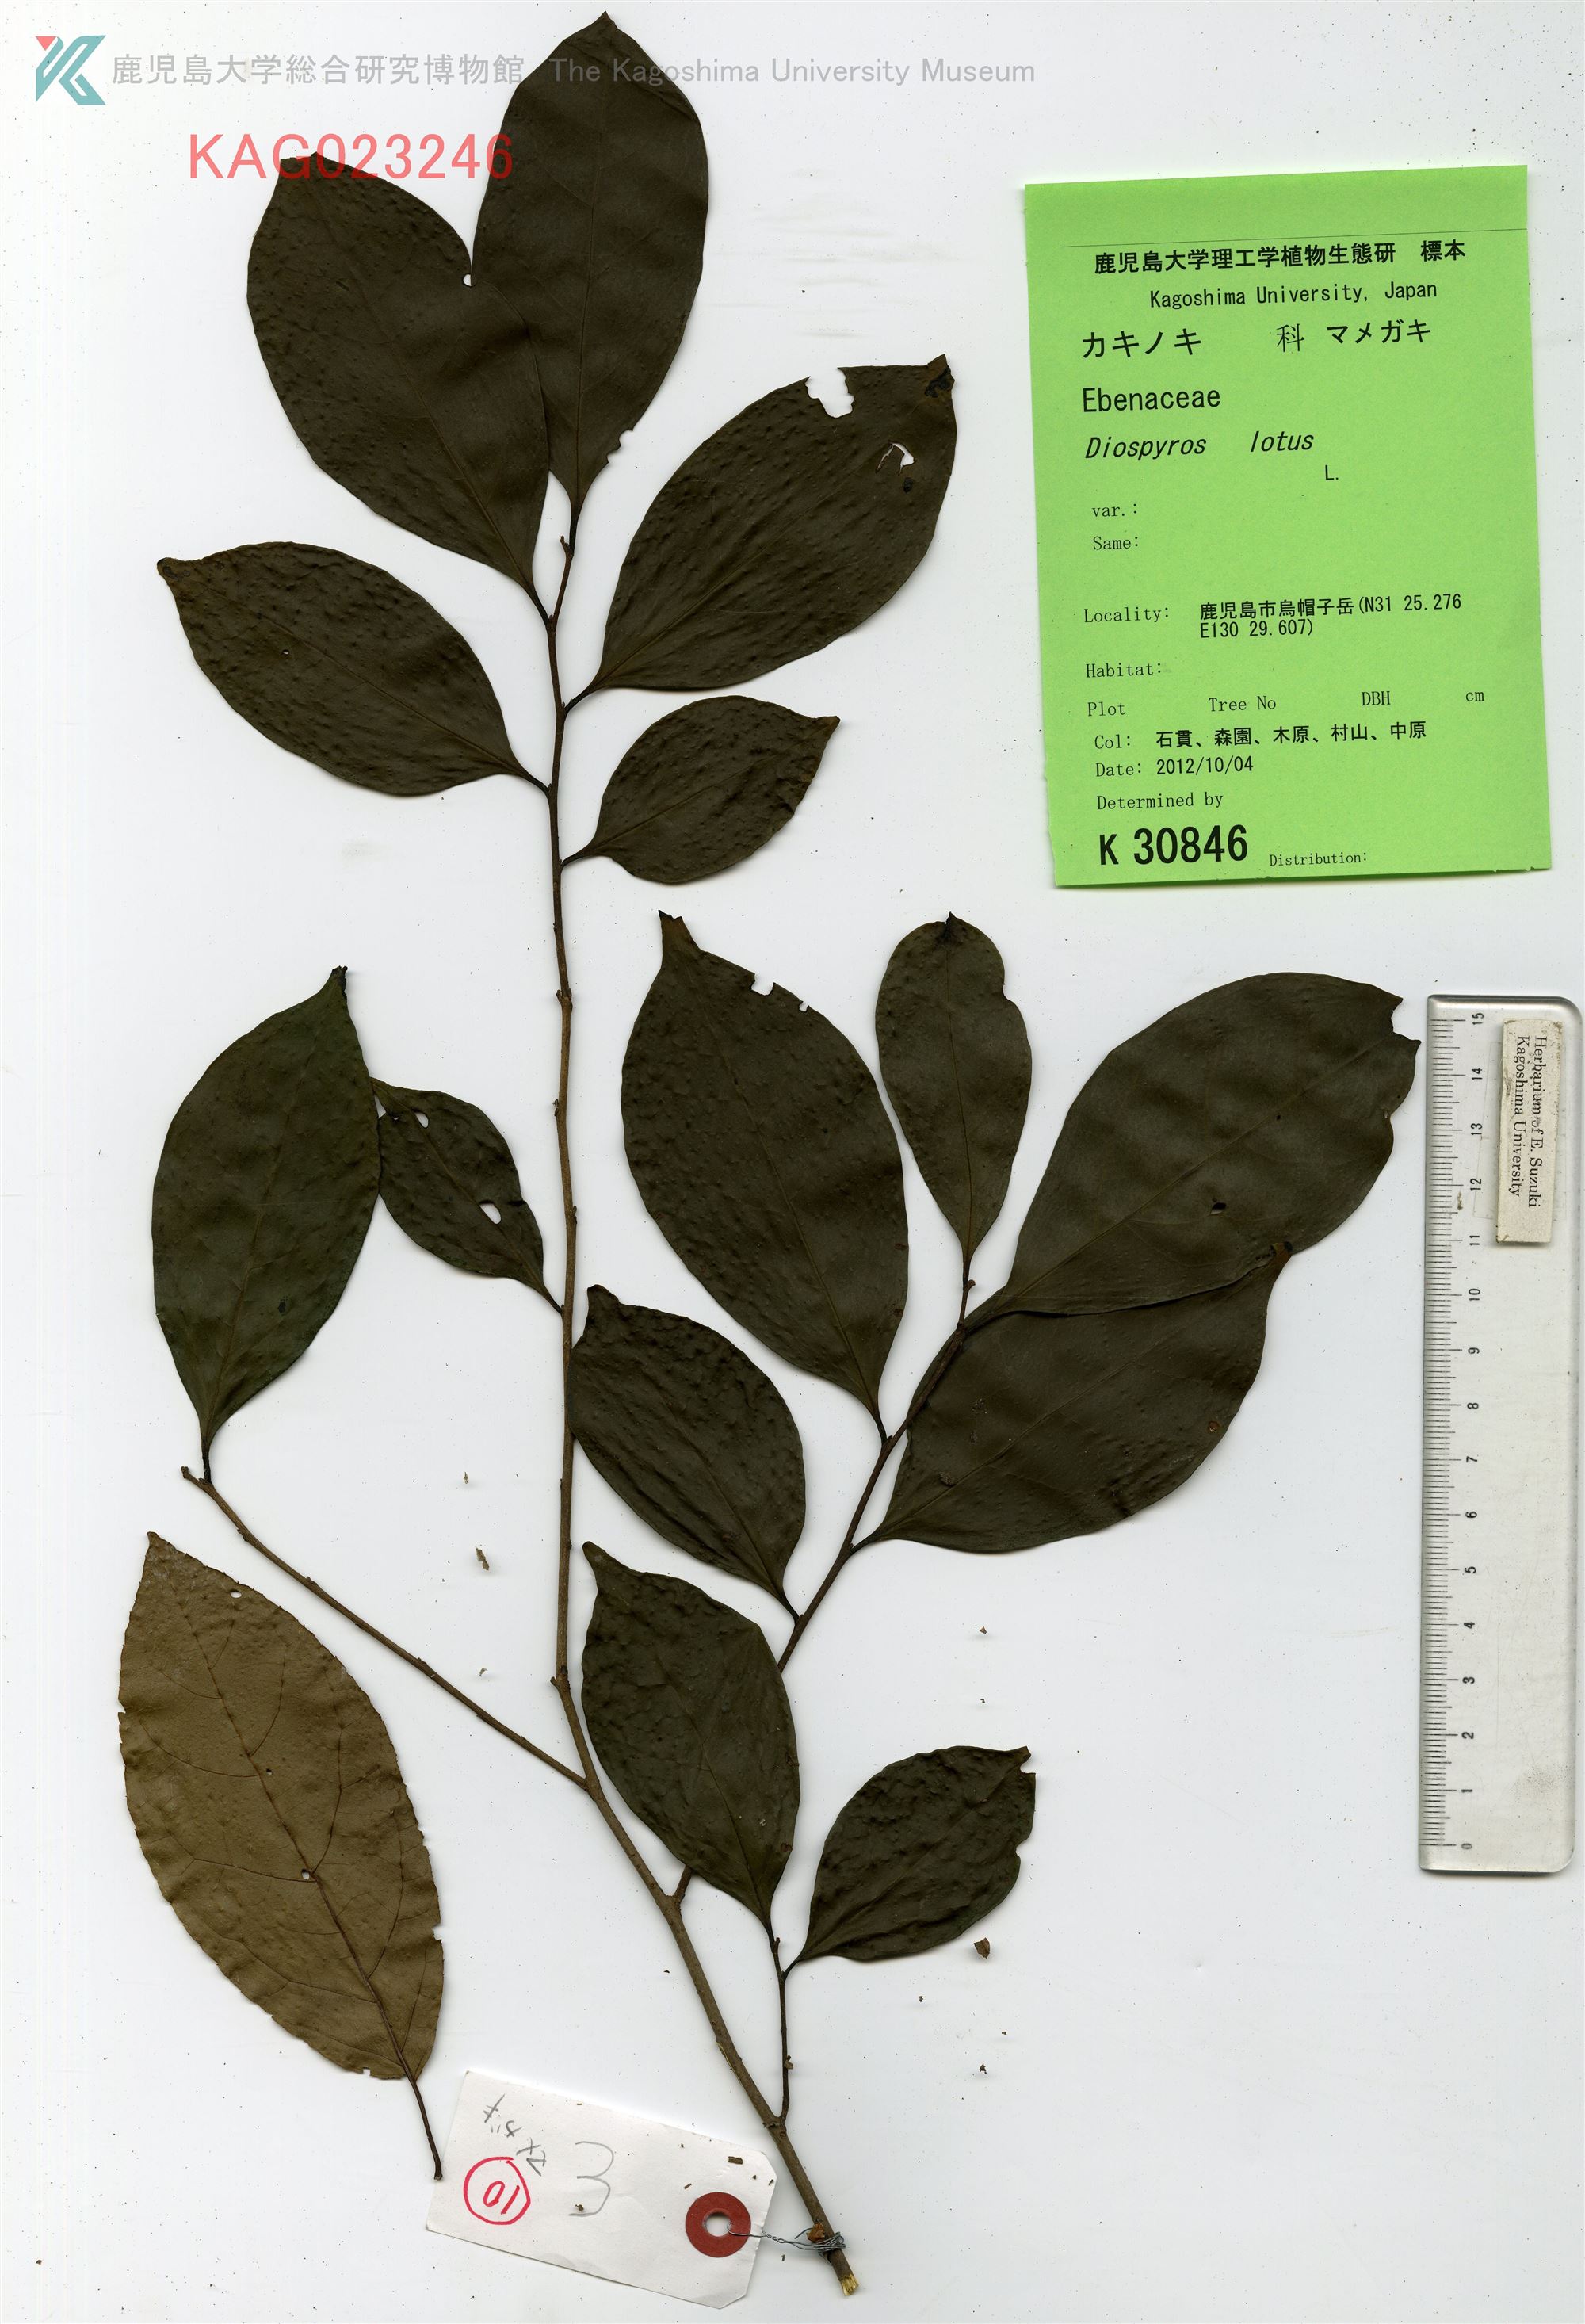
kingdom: Plantae
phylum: Tracheophyta
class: Magnoliopsida
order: Ericales
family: Ebenaceae
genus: Diospyros
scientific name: Diospyros morrisiana
